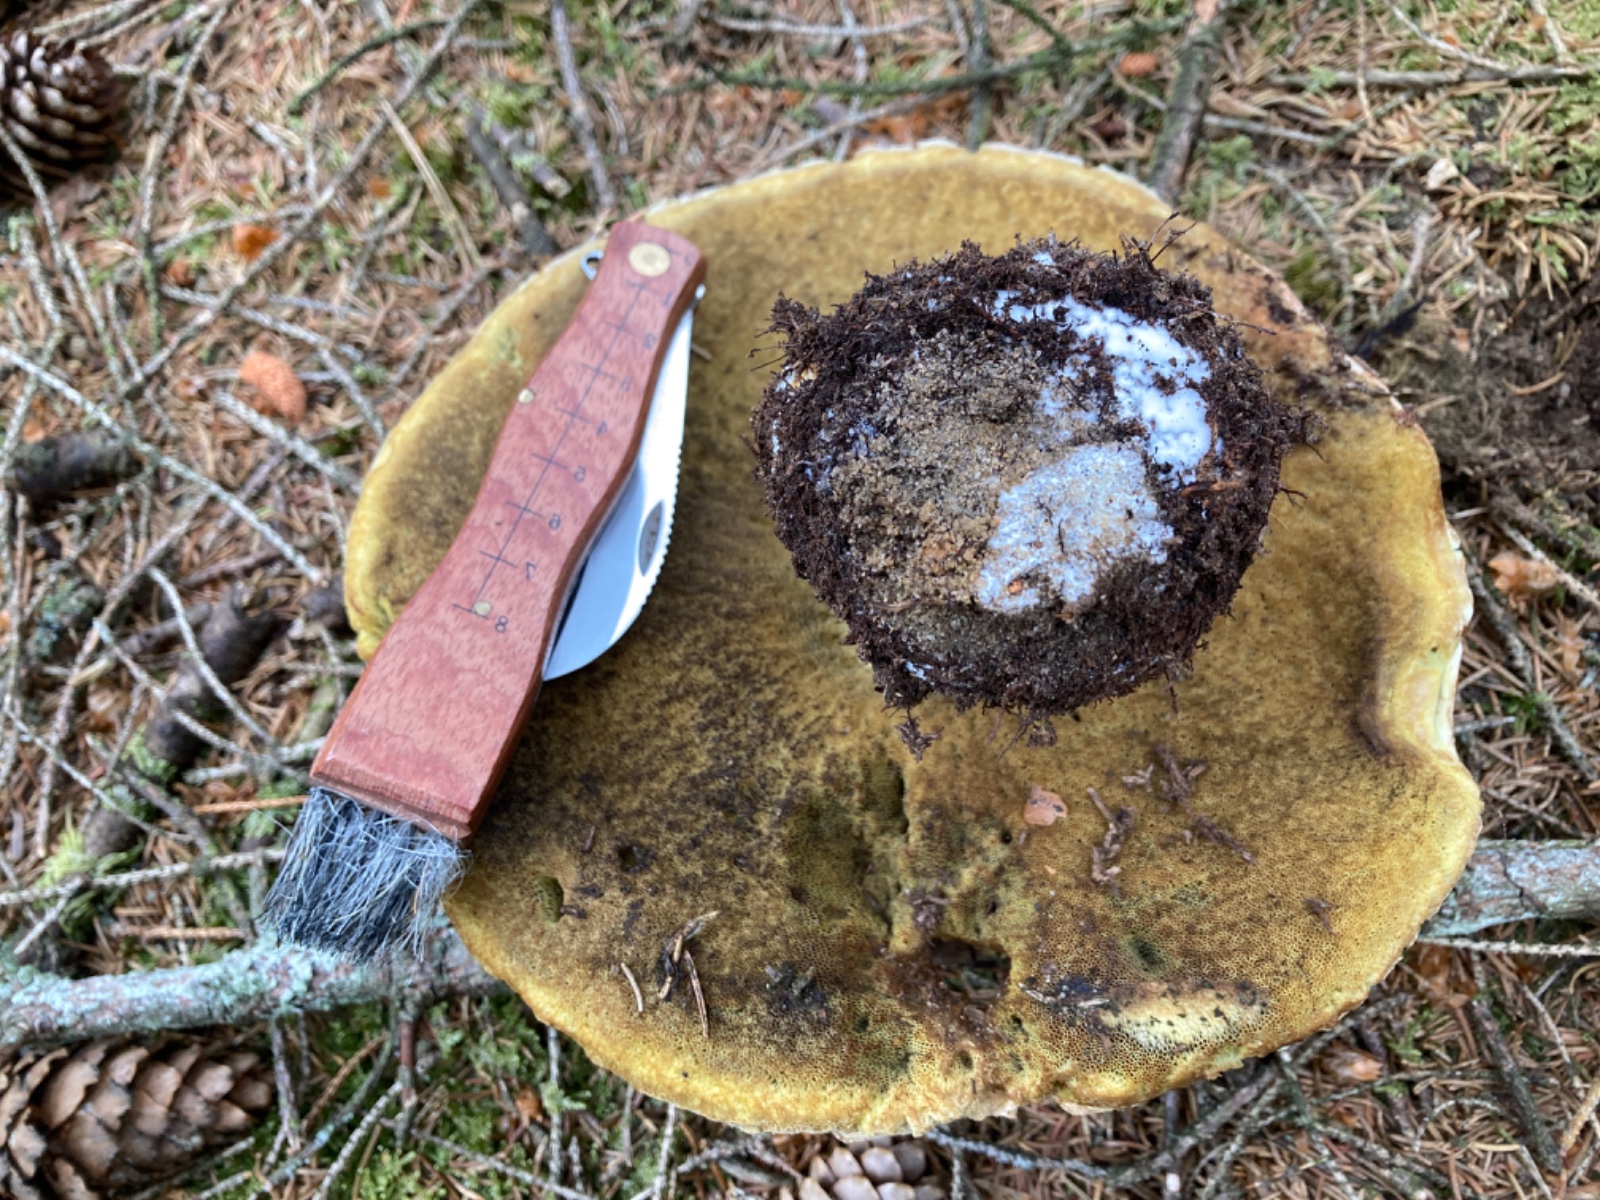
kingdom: Fungi
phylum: Basidiomycota
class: Agaricomycetes
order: Boletales
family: Boletaceae
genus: Boletus
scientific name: Boletus reticulatus
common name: sommer-rørhat
